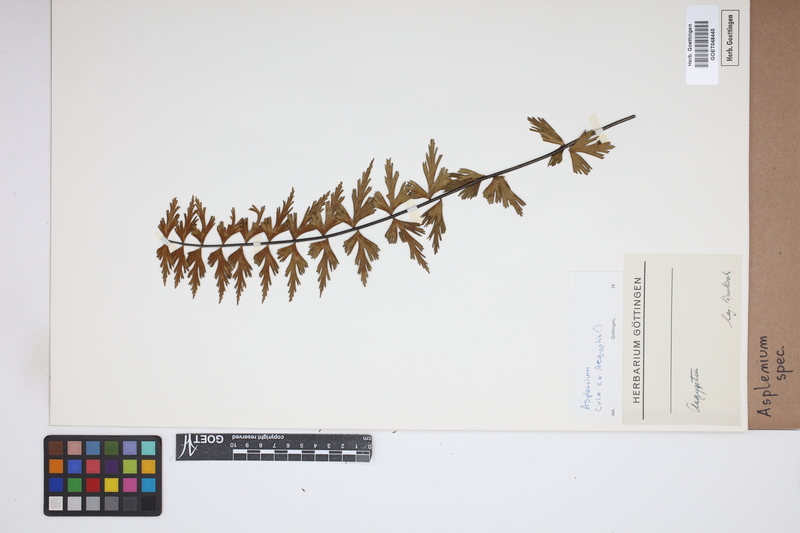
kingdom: Plantae
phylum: Tracheophyta
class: Polypodiopsida
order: Polypodiales
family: Aspleniaceae
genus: Asplenium
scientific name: Asplenium
